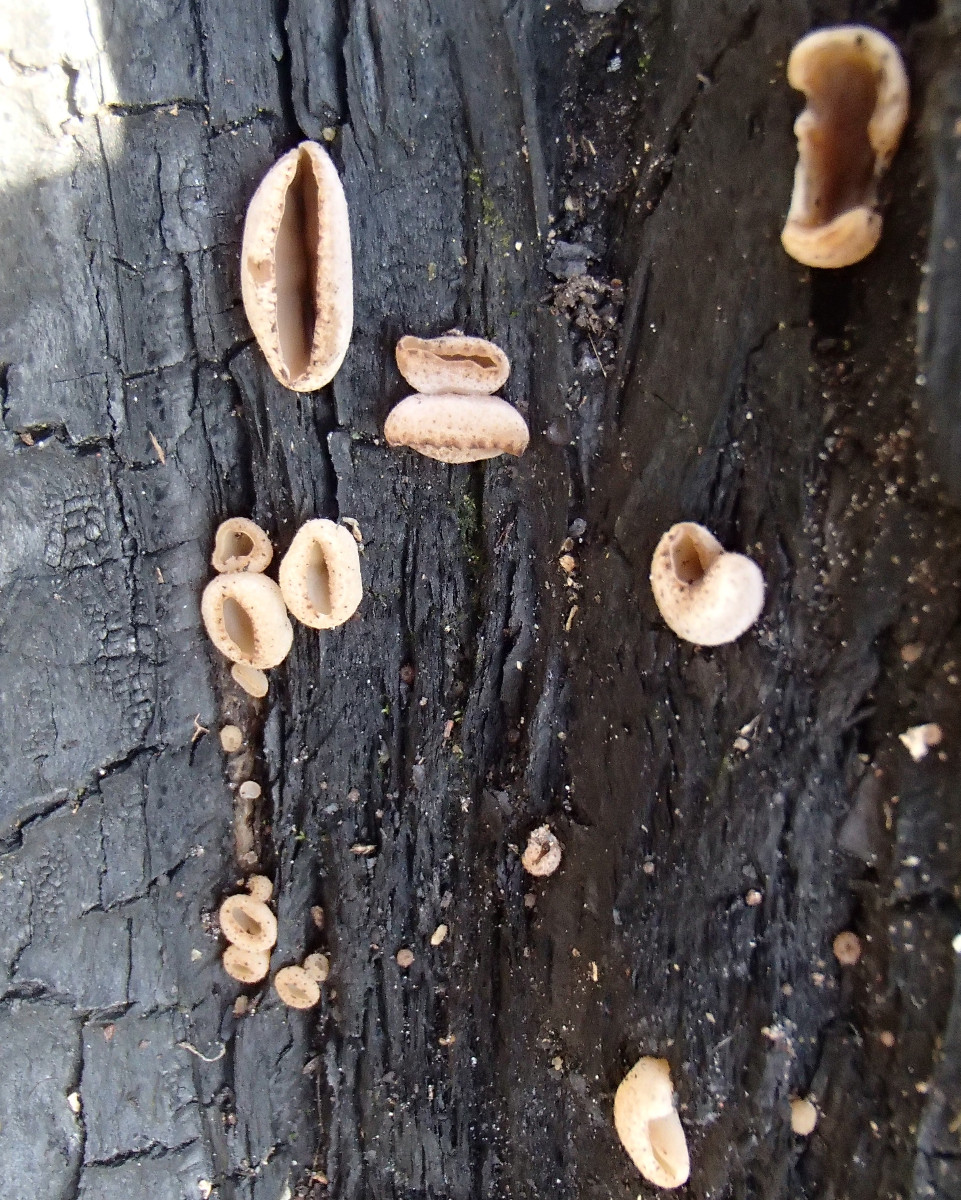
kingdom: Fungi
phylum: Ascomycota
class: Pezizomycetes
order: Pezizales
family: Pezizaceae
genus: Peziza
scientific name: Peziza
